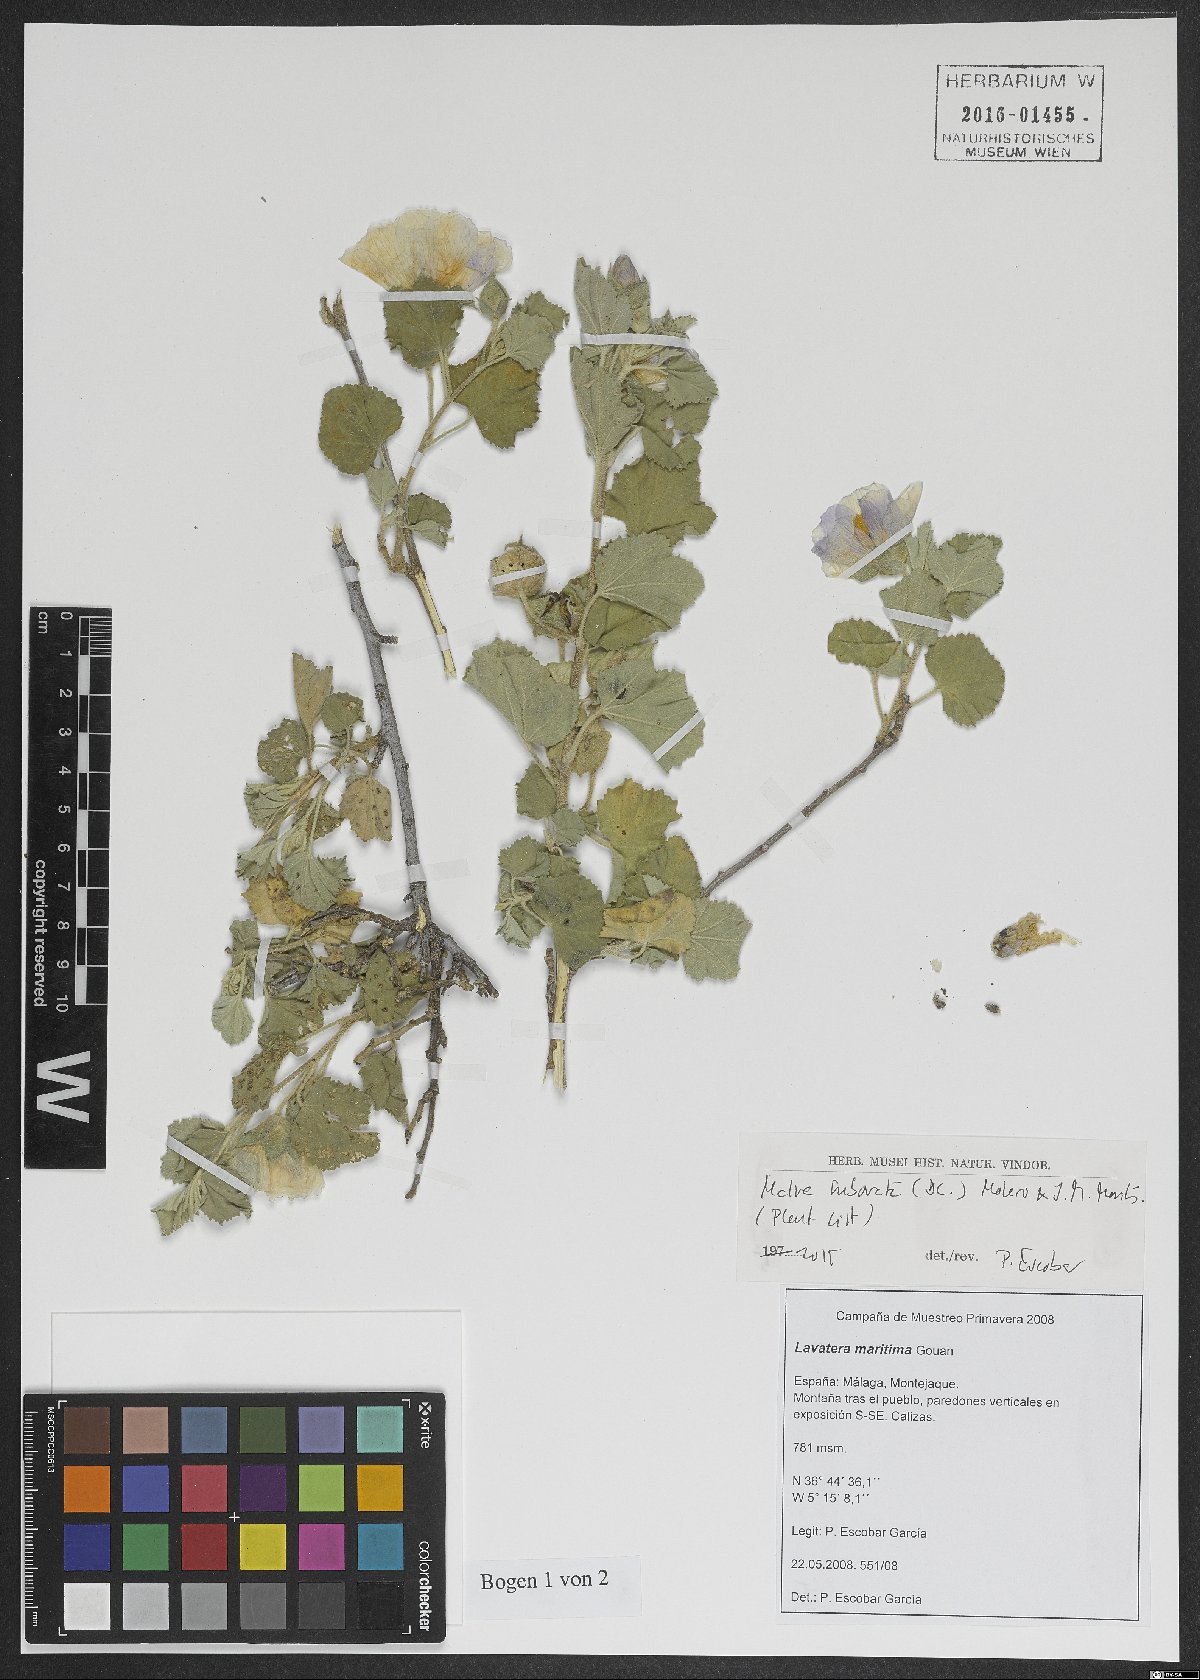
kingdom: Plantae
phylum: Tracheophyta
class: Magnoliopsida
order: Malvales
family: Malvaceae
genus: Malva
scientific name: Malva subovata
